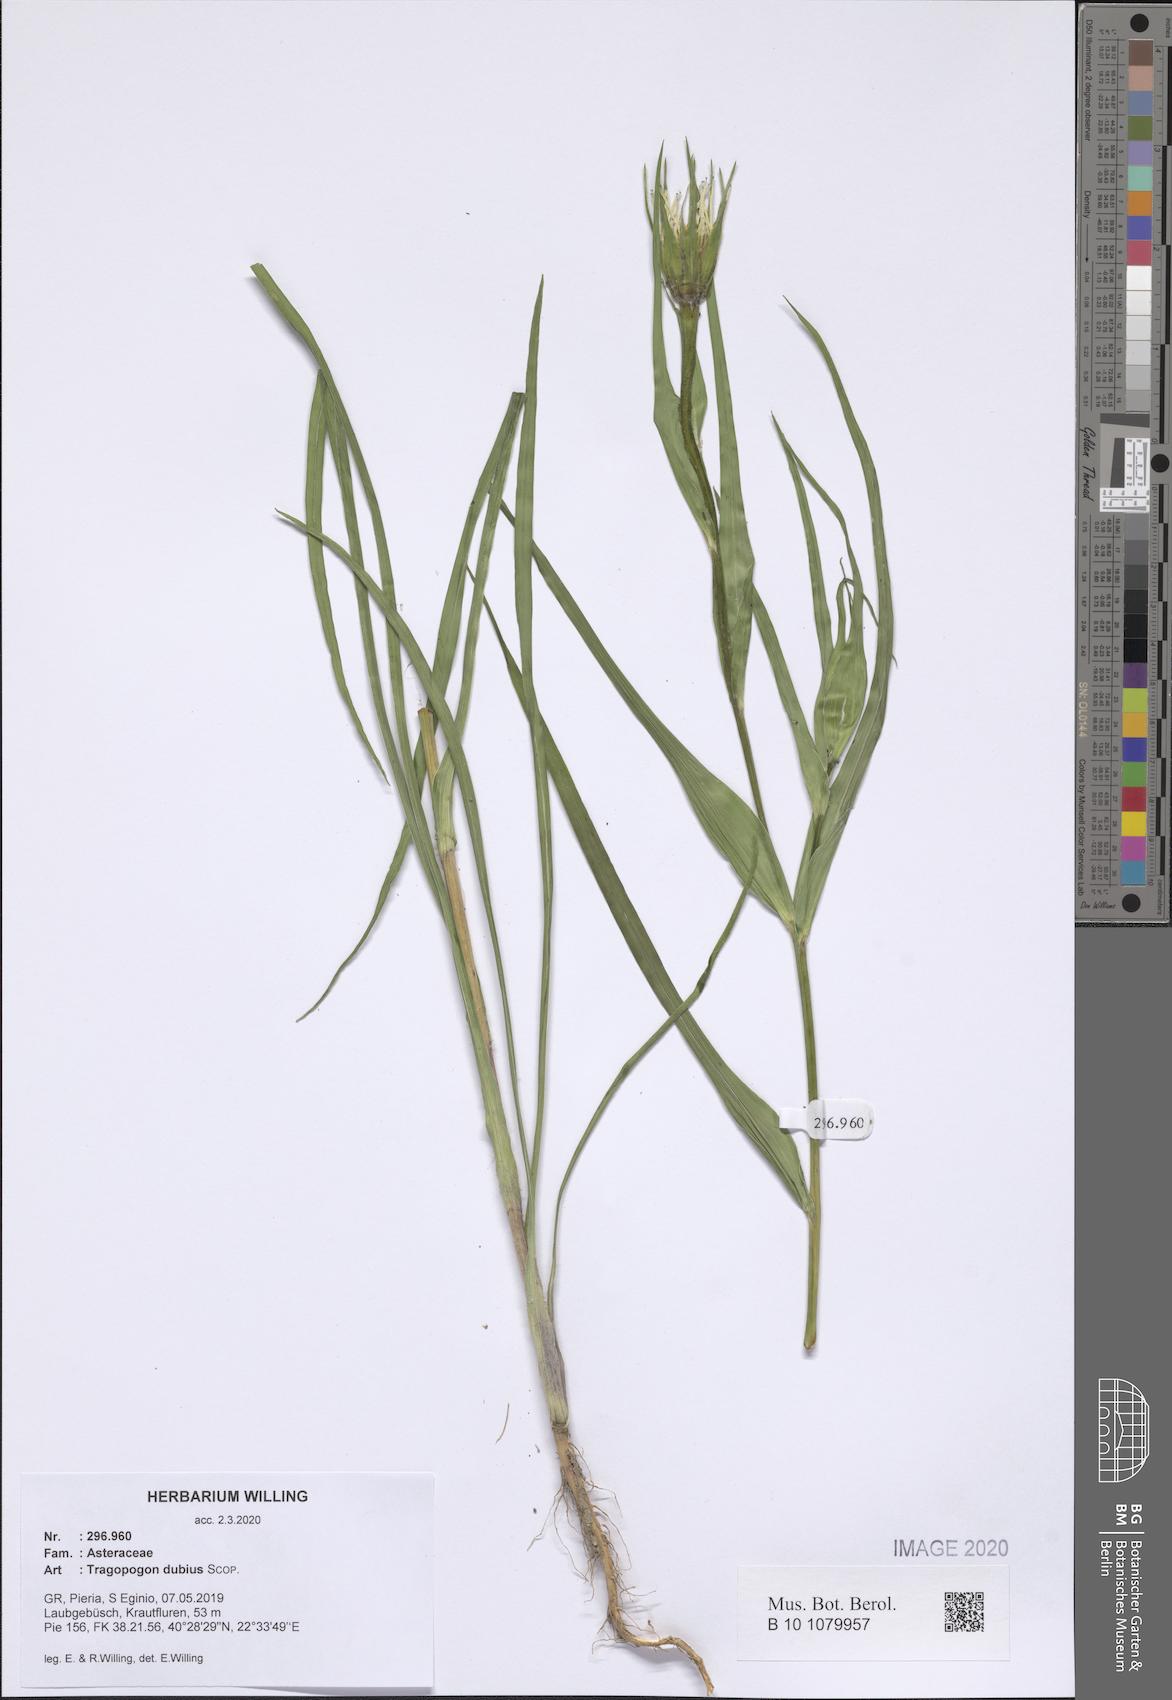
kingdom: Plantae
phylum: Tracheophyta
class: Magnoliopsida
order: Asterales
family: Asteraceae
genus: Tragopogon
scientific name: Tragopogon dubius
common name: Yellow salsify
